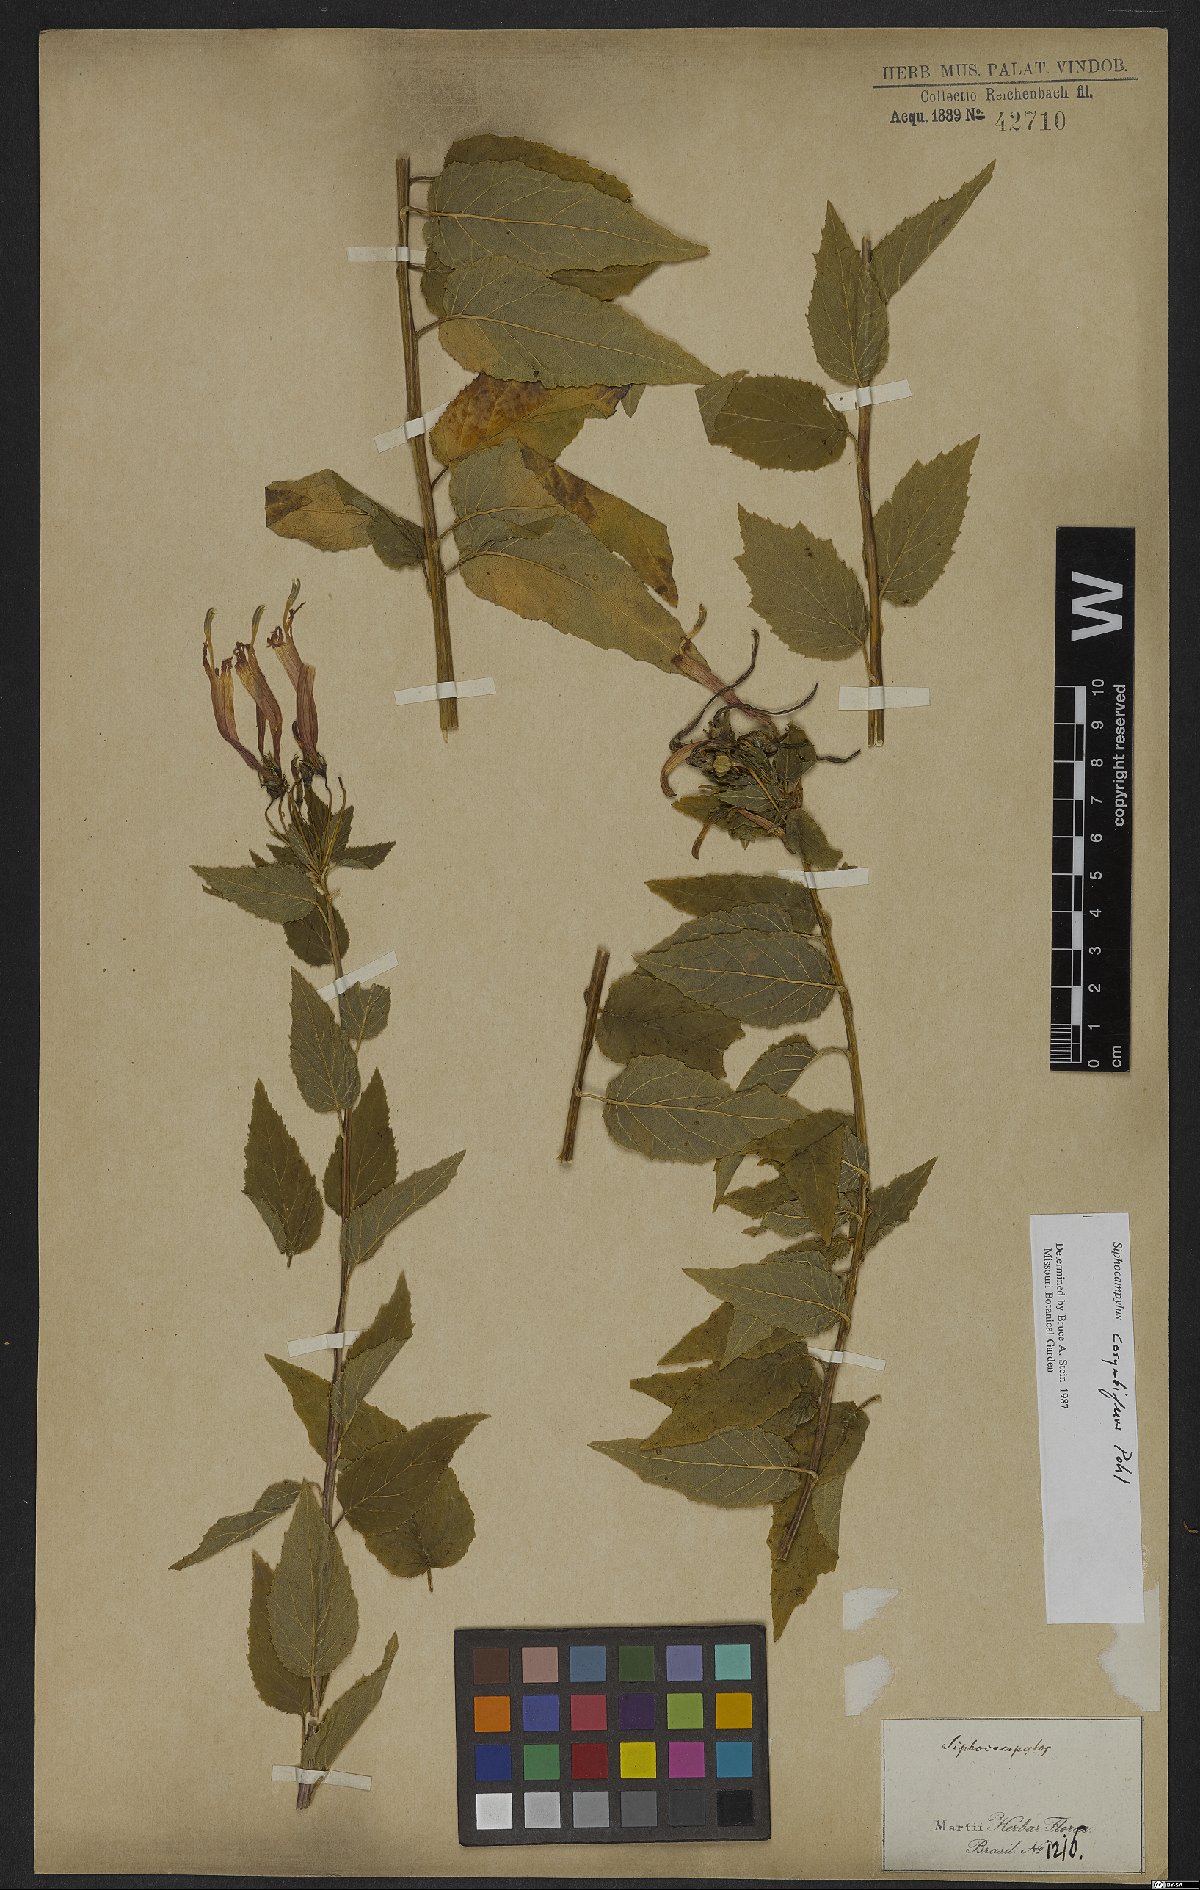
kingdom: Plantae
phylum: Tracheophyta
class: Magnoliopsida
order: Asterales
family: Campanulaceae
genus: Siphocampylus
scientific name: Siphocampylus corymbiferus
